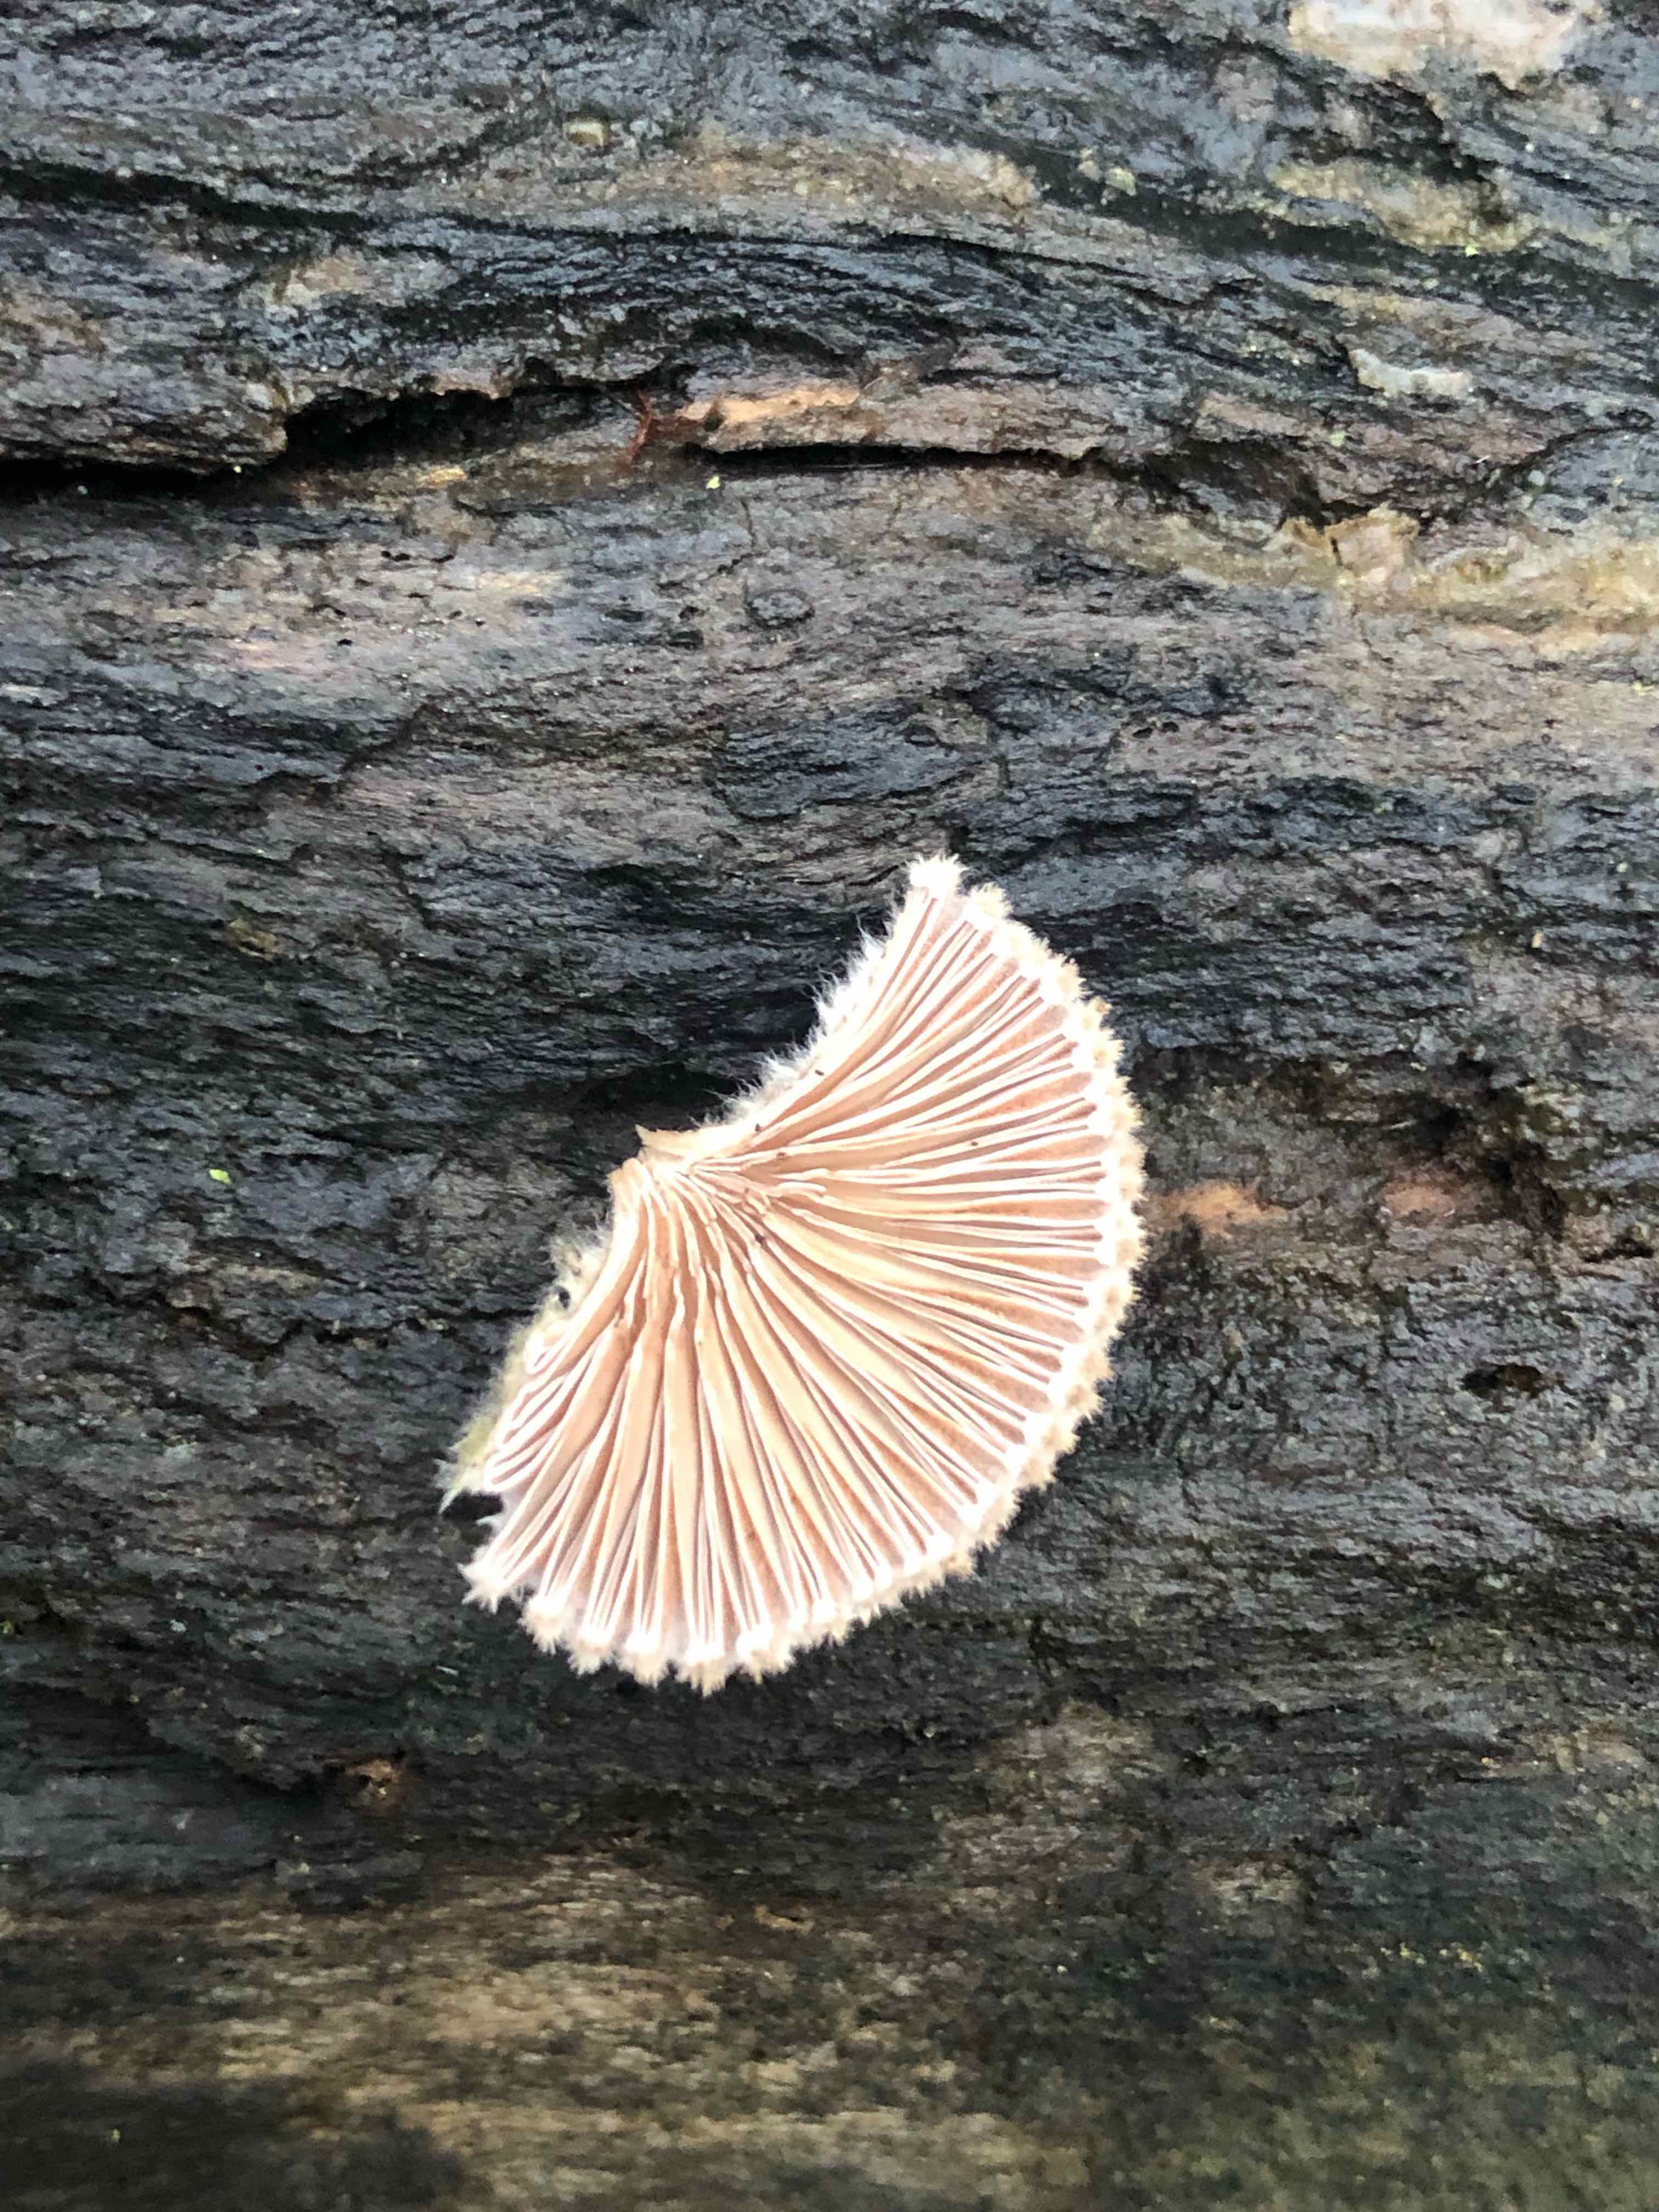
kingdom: Fungi
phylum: Basidiomycota
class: Agaricomycetes
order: Agaricales
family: Schizophyllaceae
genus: Schizophyllum
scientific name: Schizophyllum commune
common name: kløvblad
